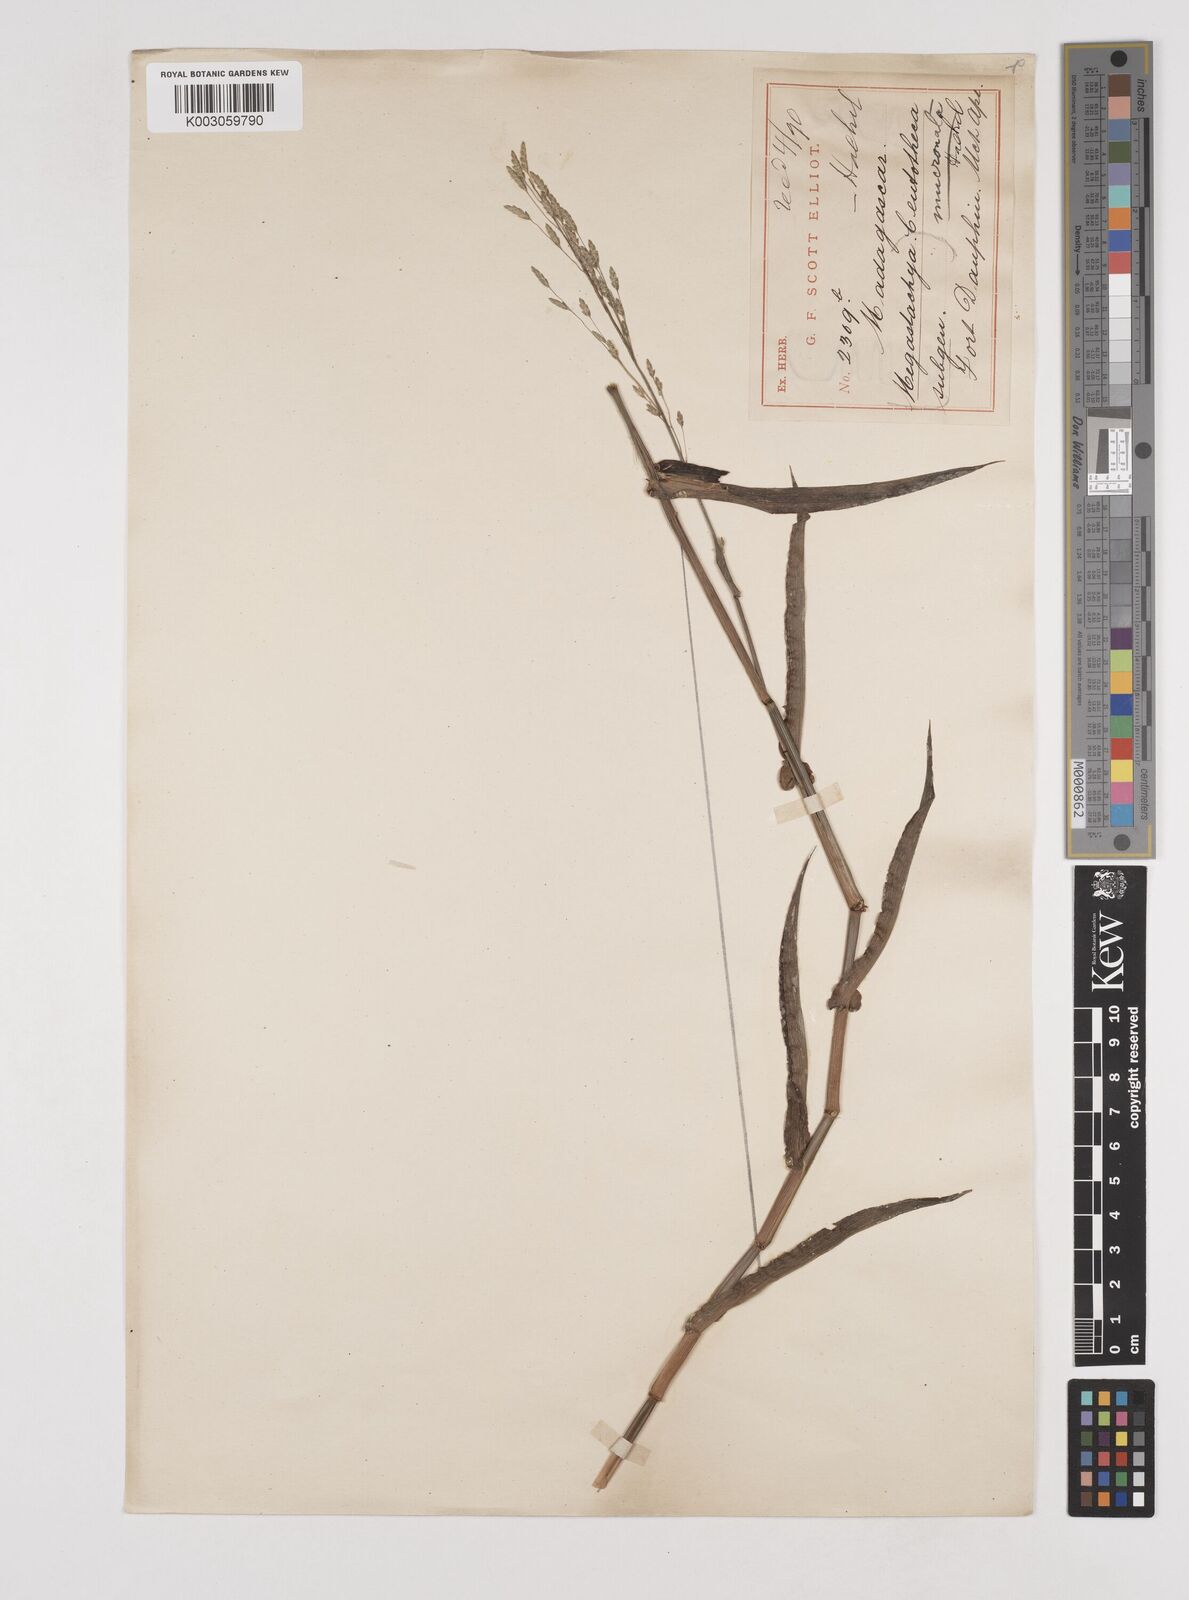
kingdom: Plantae
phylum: Tracheophyta
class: Liliopsida
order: Poales
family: Poaceae
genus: Megastachya
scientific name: Megastachya mucronata
